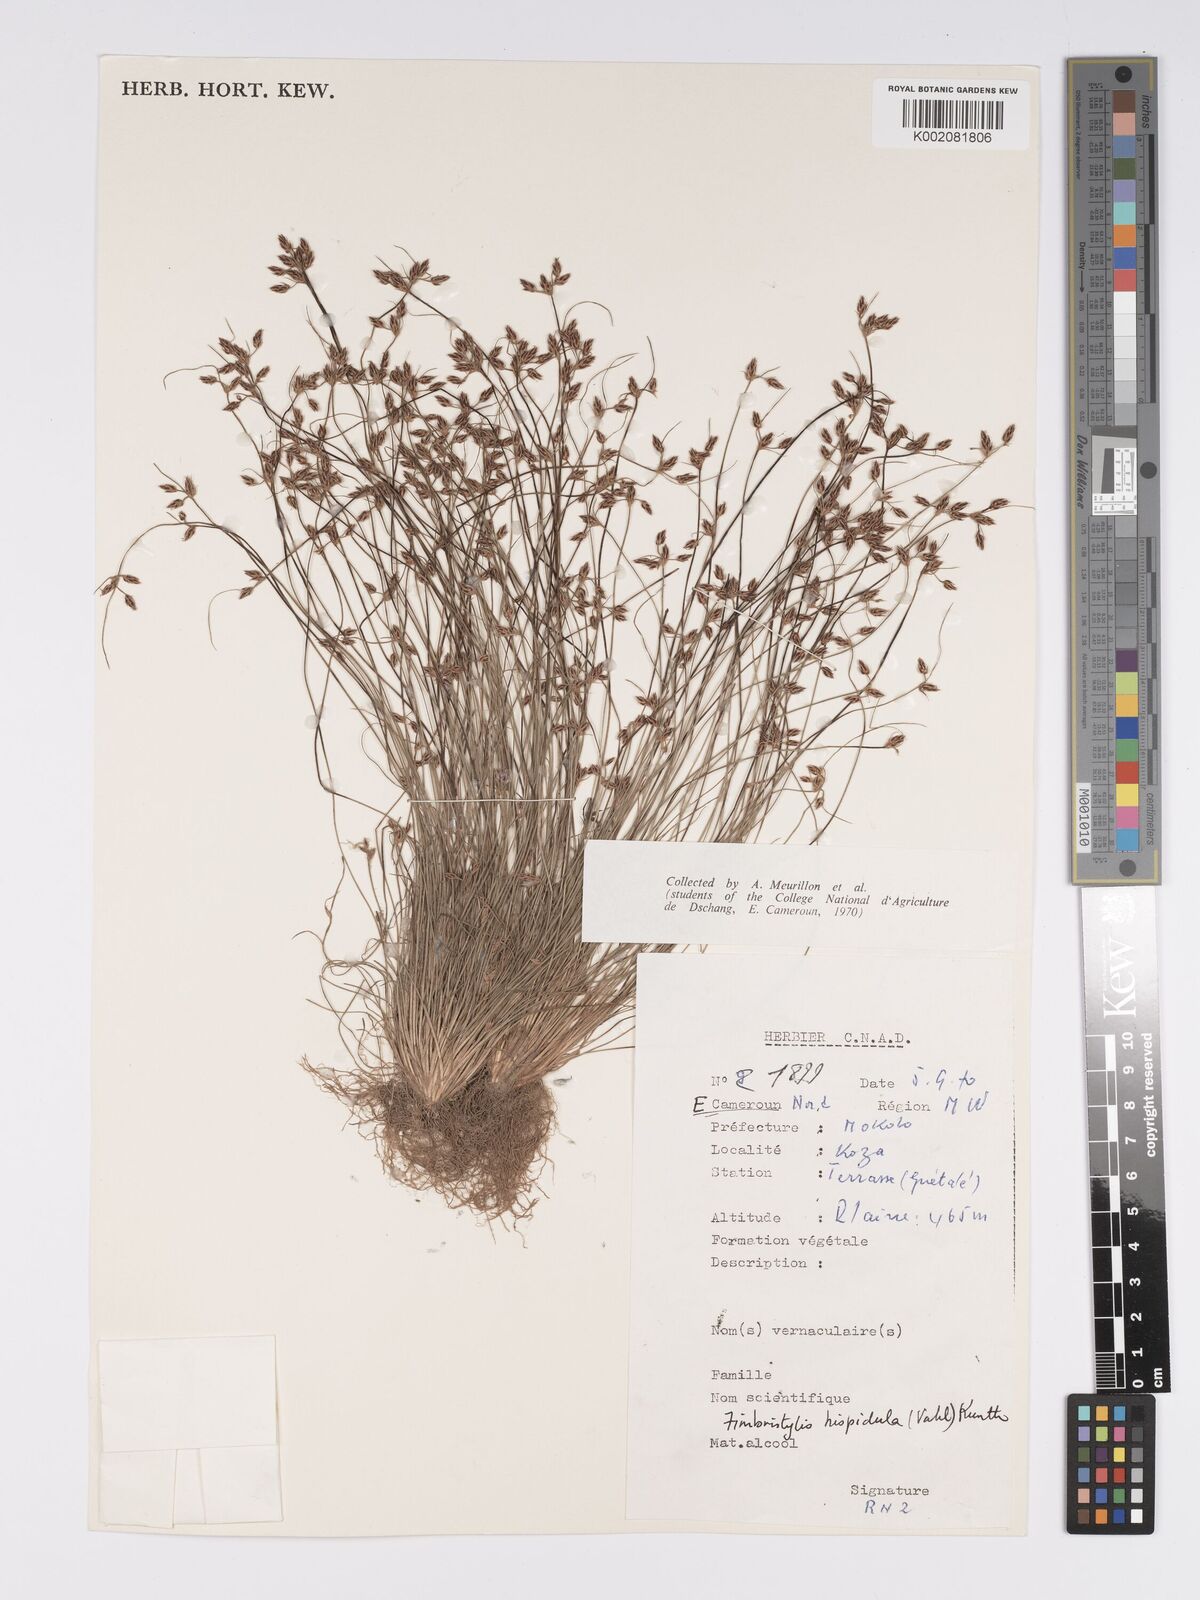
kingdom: Plantae
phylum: Tracheophyta
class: Liliopsida
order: Poales
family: Cyperaceae
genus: Bulbostylis
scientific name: Bulbostylis hispidula
